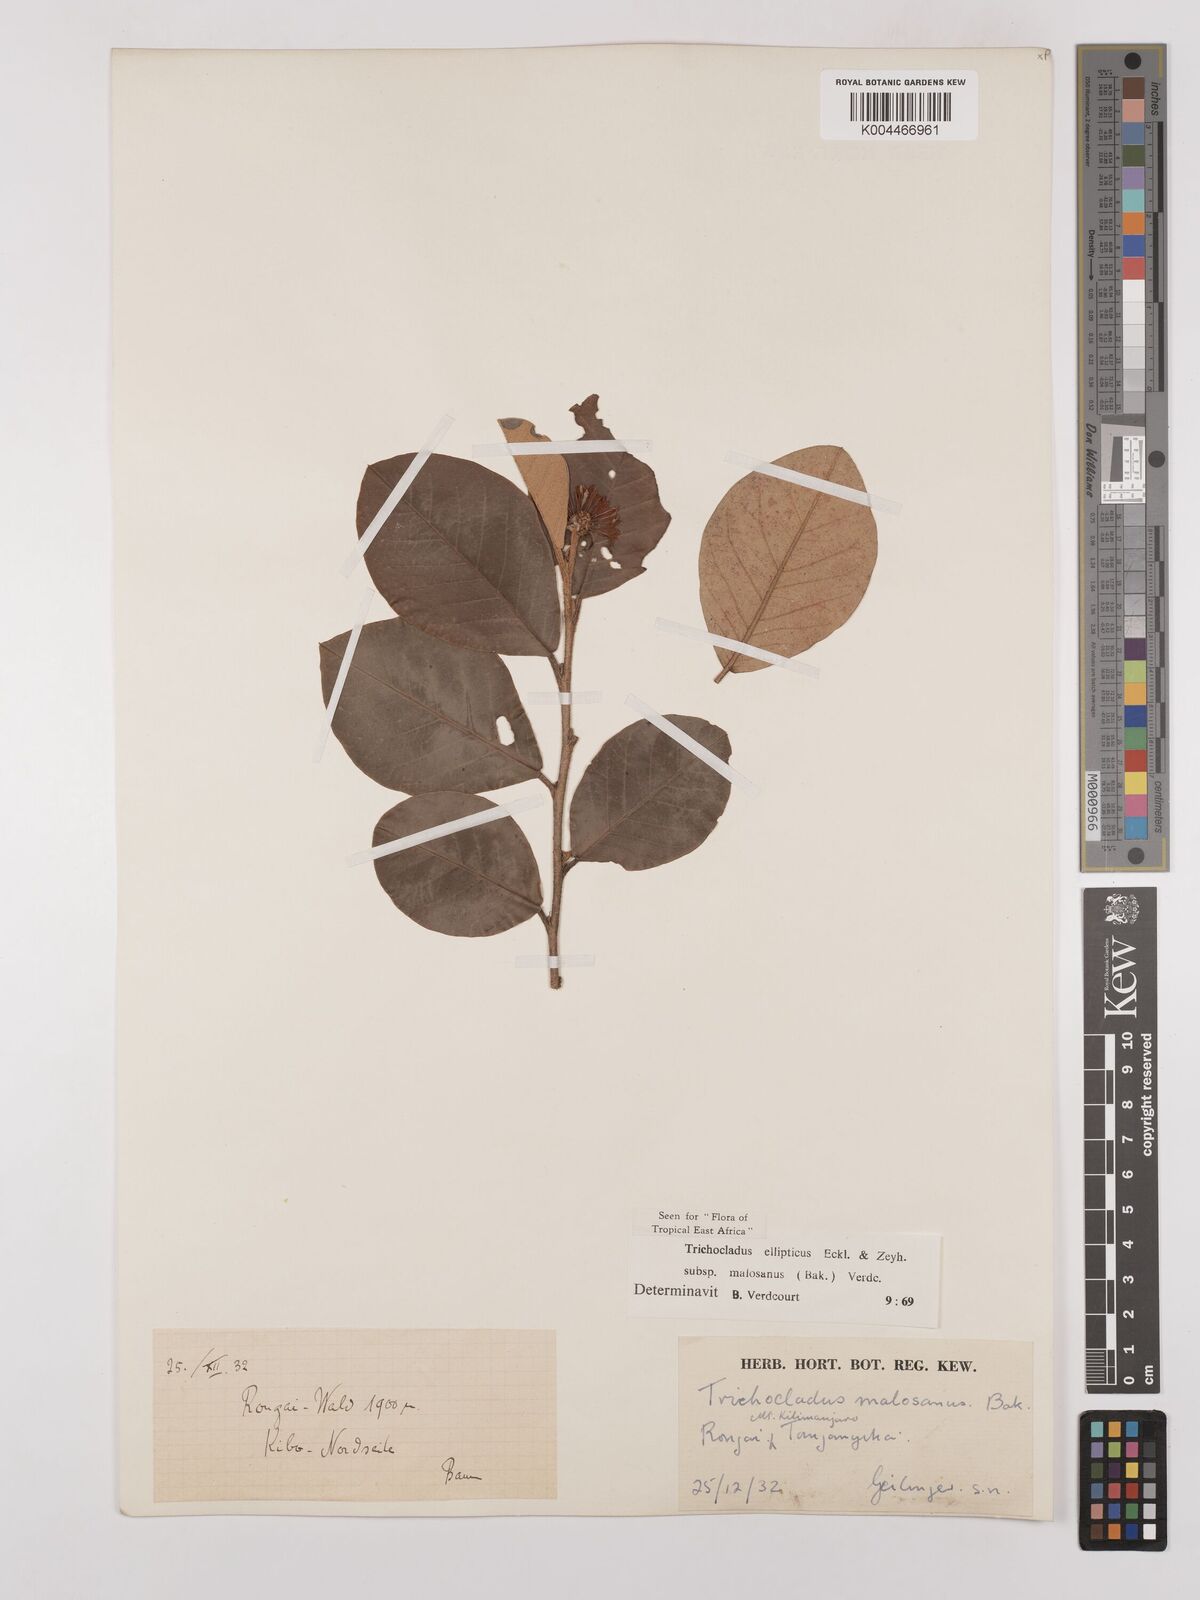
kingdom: Plantae
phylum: Tracheophyta
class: Magnoliopsida
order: Saxifragales
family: Hamamelidaceae
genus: Trichocladus
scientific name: Trichocladus ellipticus
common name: White witch-hazel
